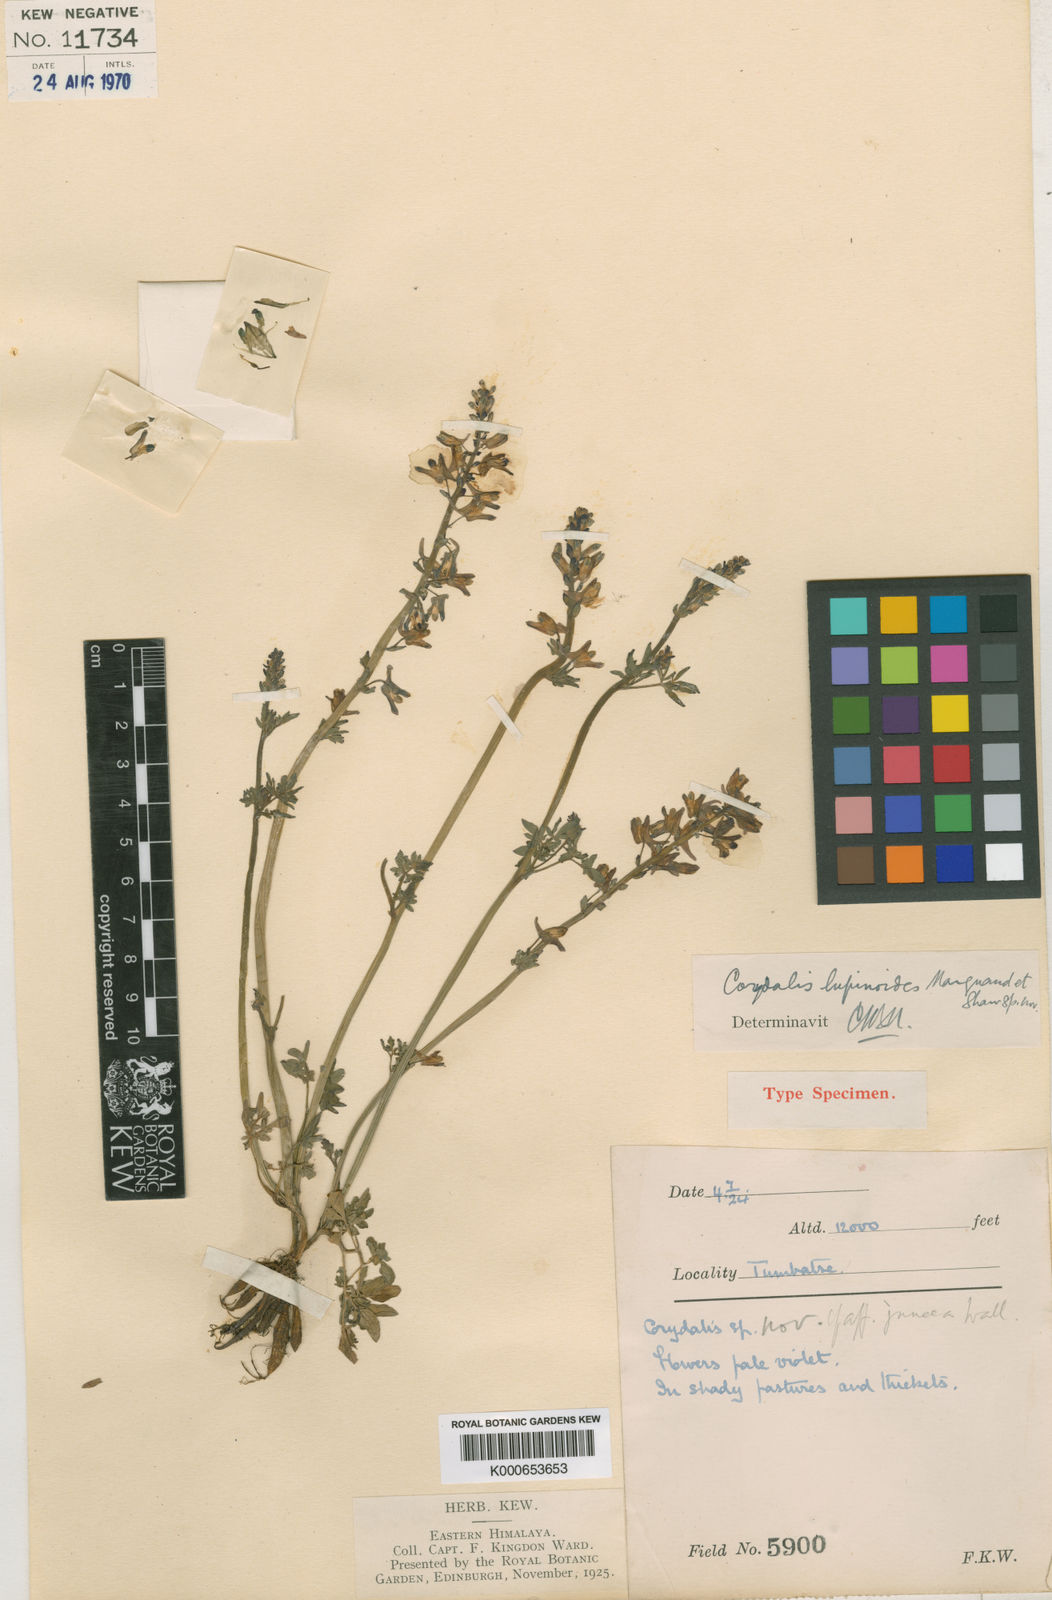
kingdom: Plantae
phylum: Tracheophyta
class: Magnoliopsida
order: Ranunculales
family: Papaveraceae
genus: Corydalis
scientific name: Corydalis lupinoides
